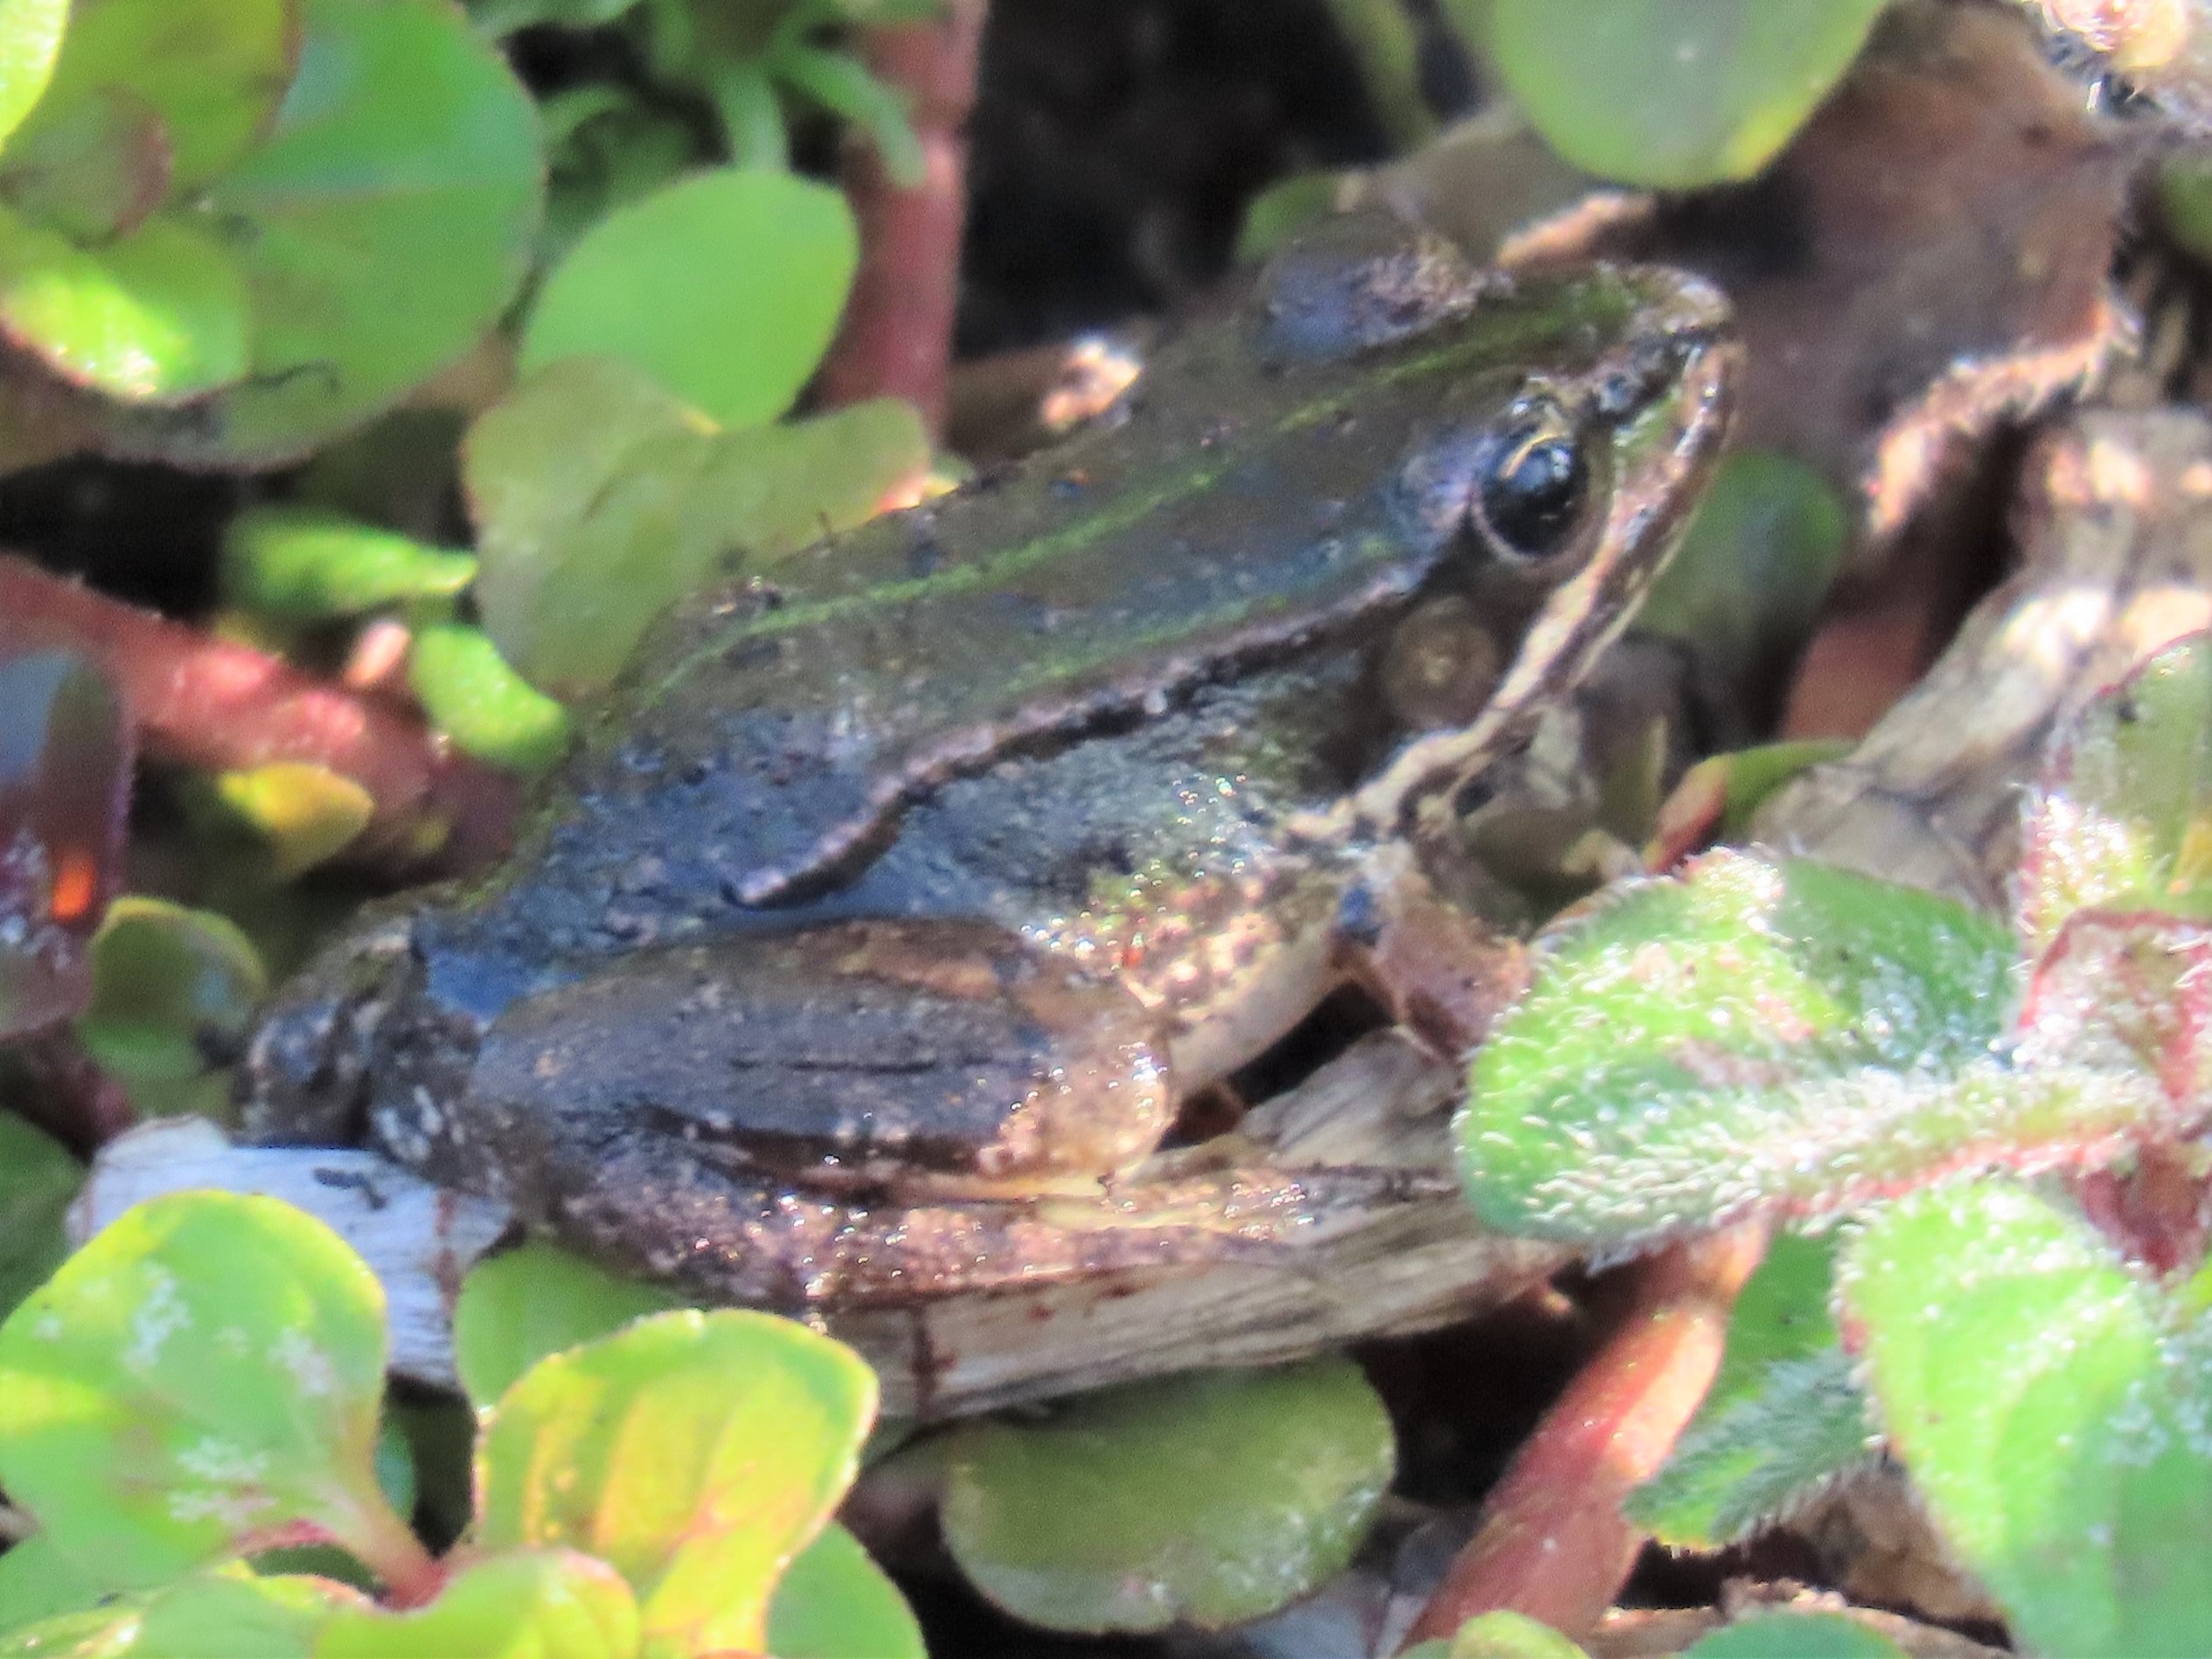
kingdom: Animalia
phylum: Chordata
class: Amphibia
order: Anura
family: Ranidae
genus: Pelophylax
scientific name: Pelophylax lessonae
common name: Grøn frø
